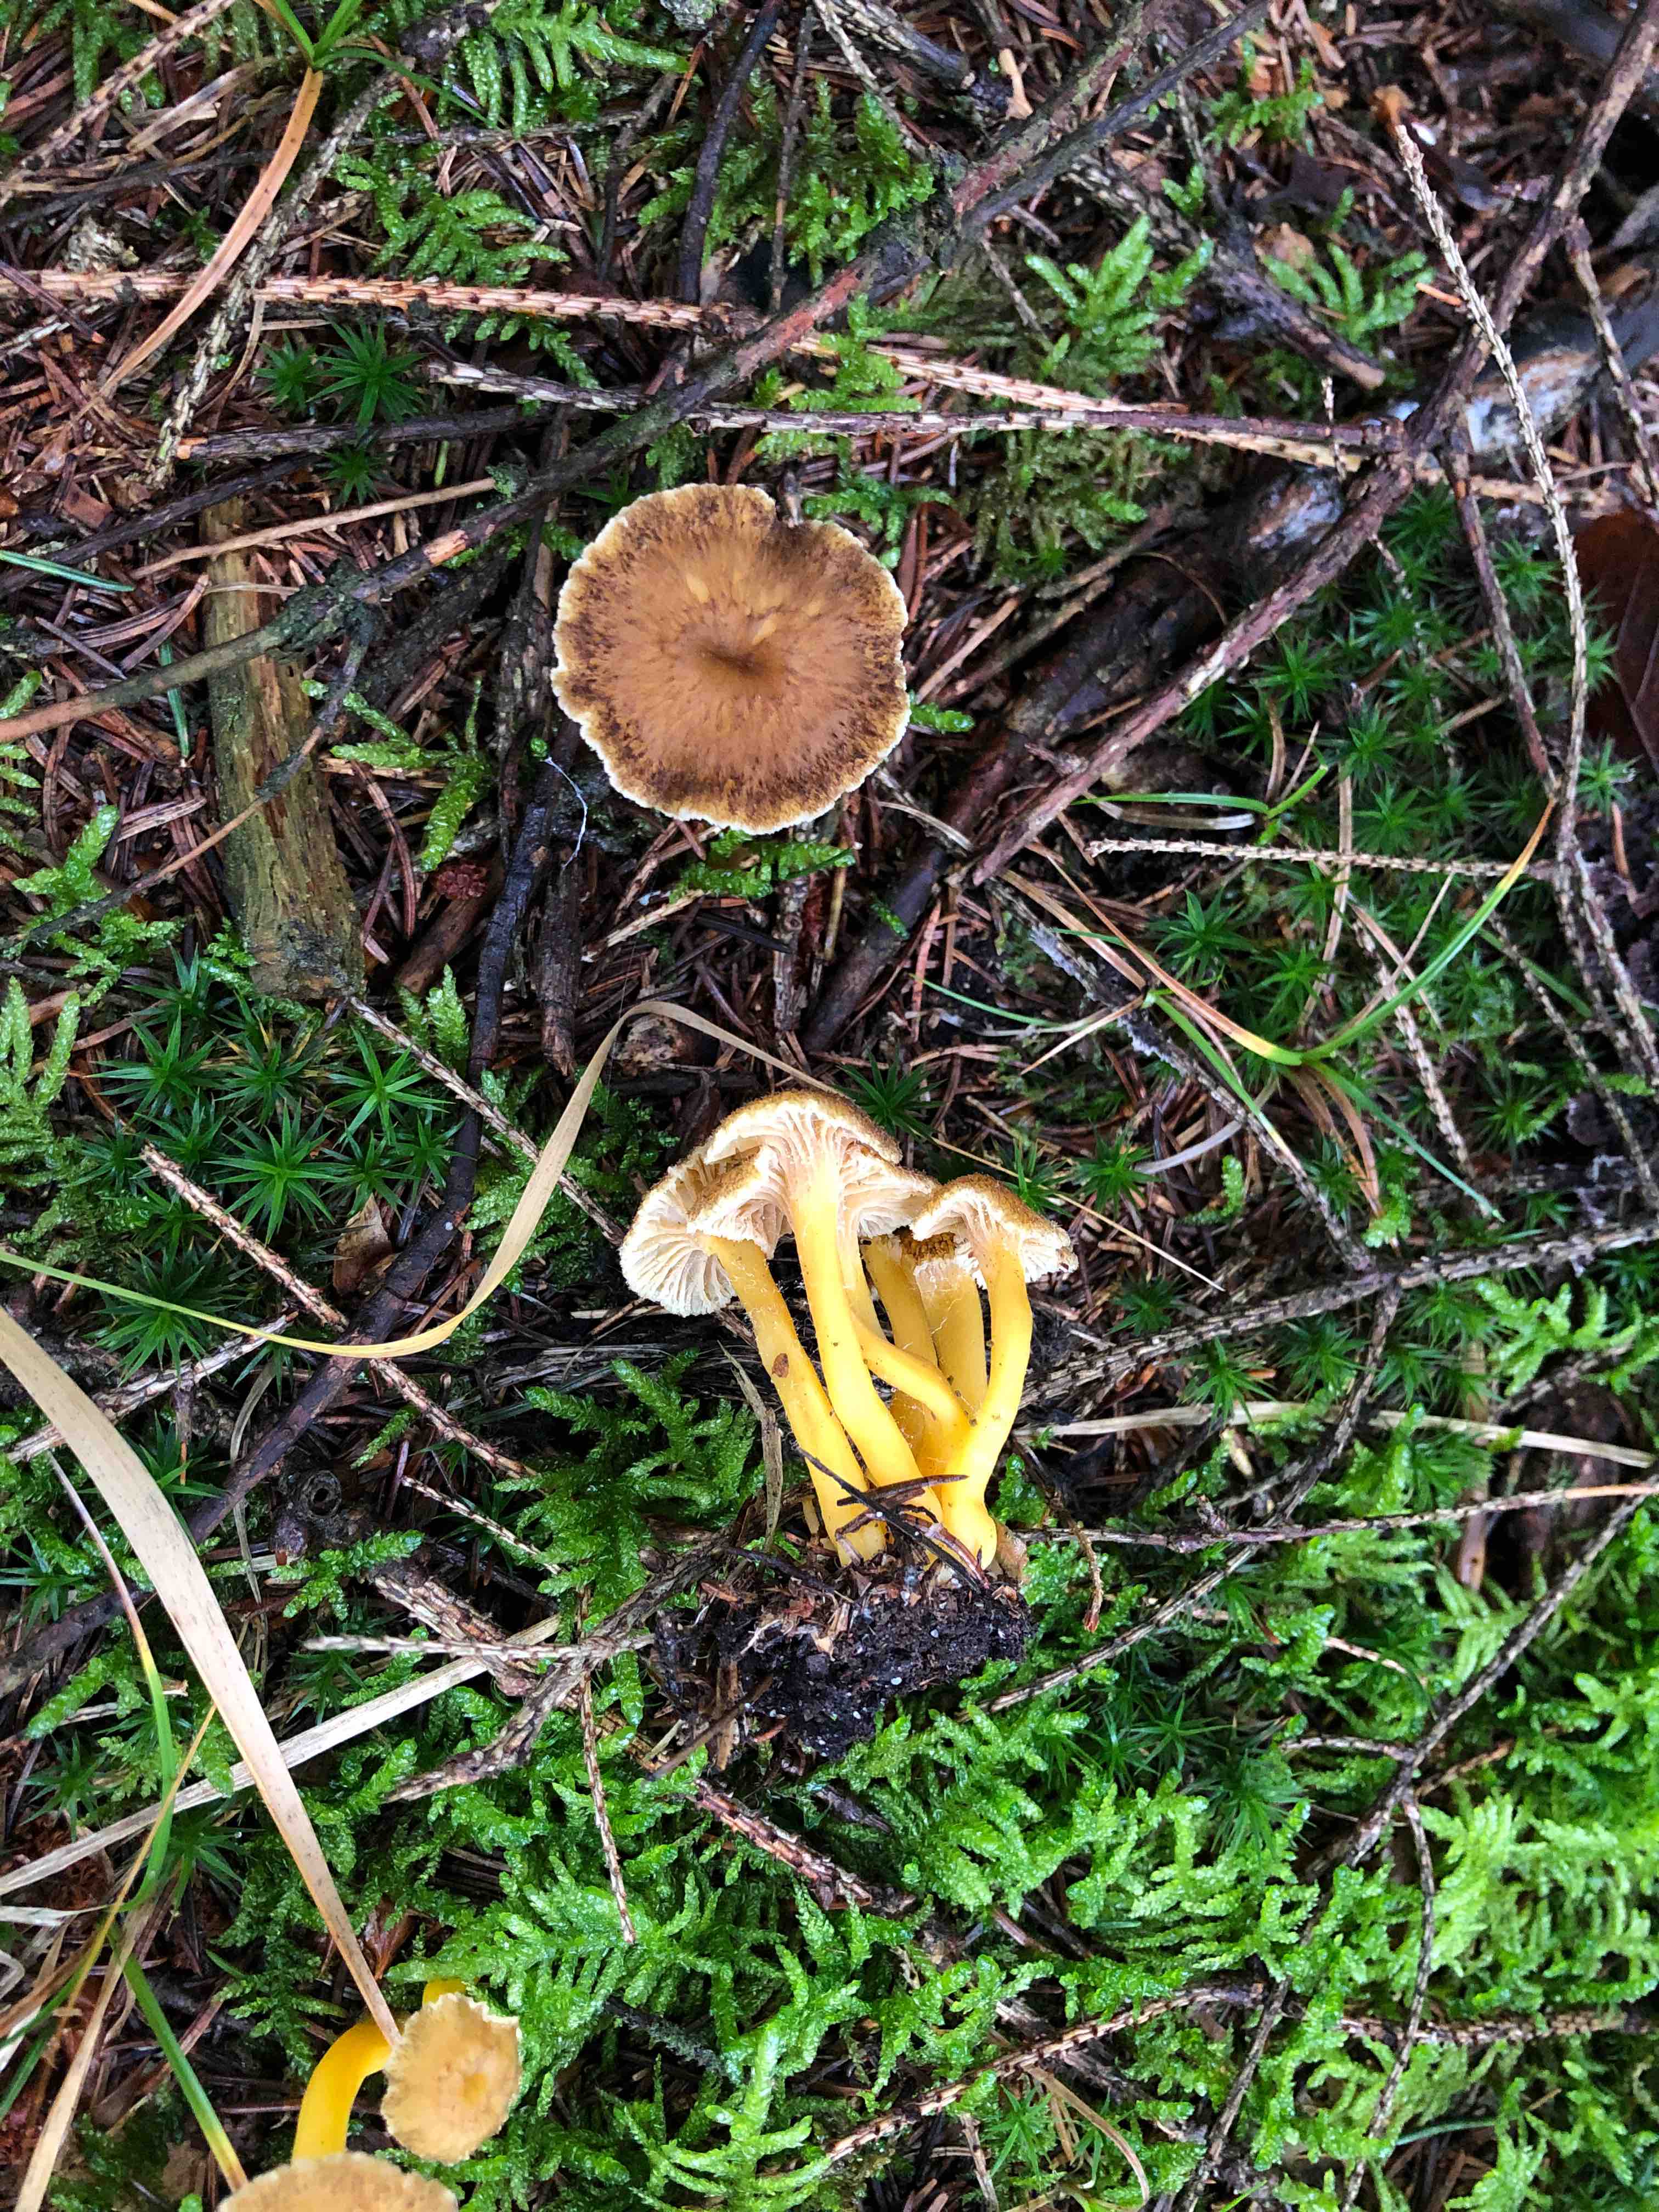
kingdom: Fungi
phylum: Basidiomycota
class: Agaricomycetes
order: Cantharellales
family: Hydnaceae
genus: Craterellus
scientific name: Craterellus tubaeformis
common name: tragt-kantarel
